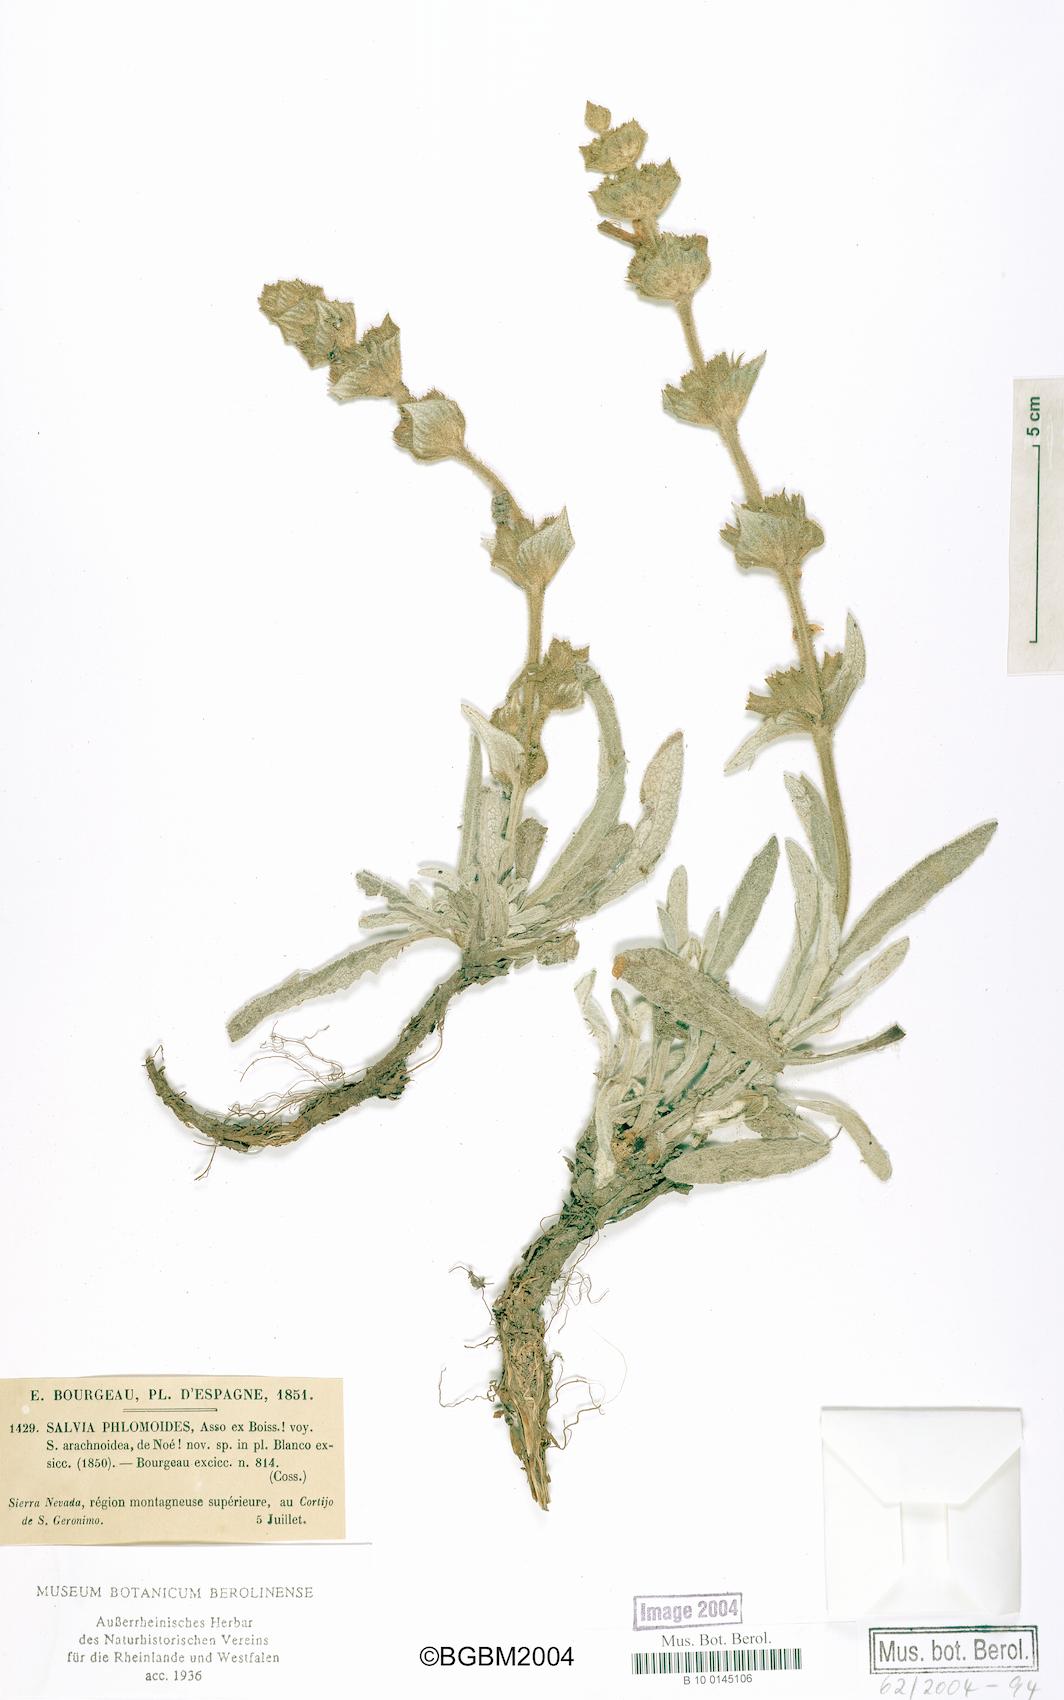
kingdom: Plantae
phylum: Tracheophyta
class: Magnoliopsida
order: Lamiales
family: Lamiaceae
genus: Salvia
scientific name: Salvia phlomoides
